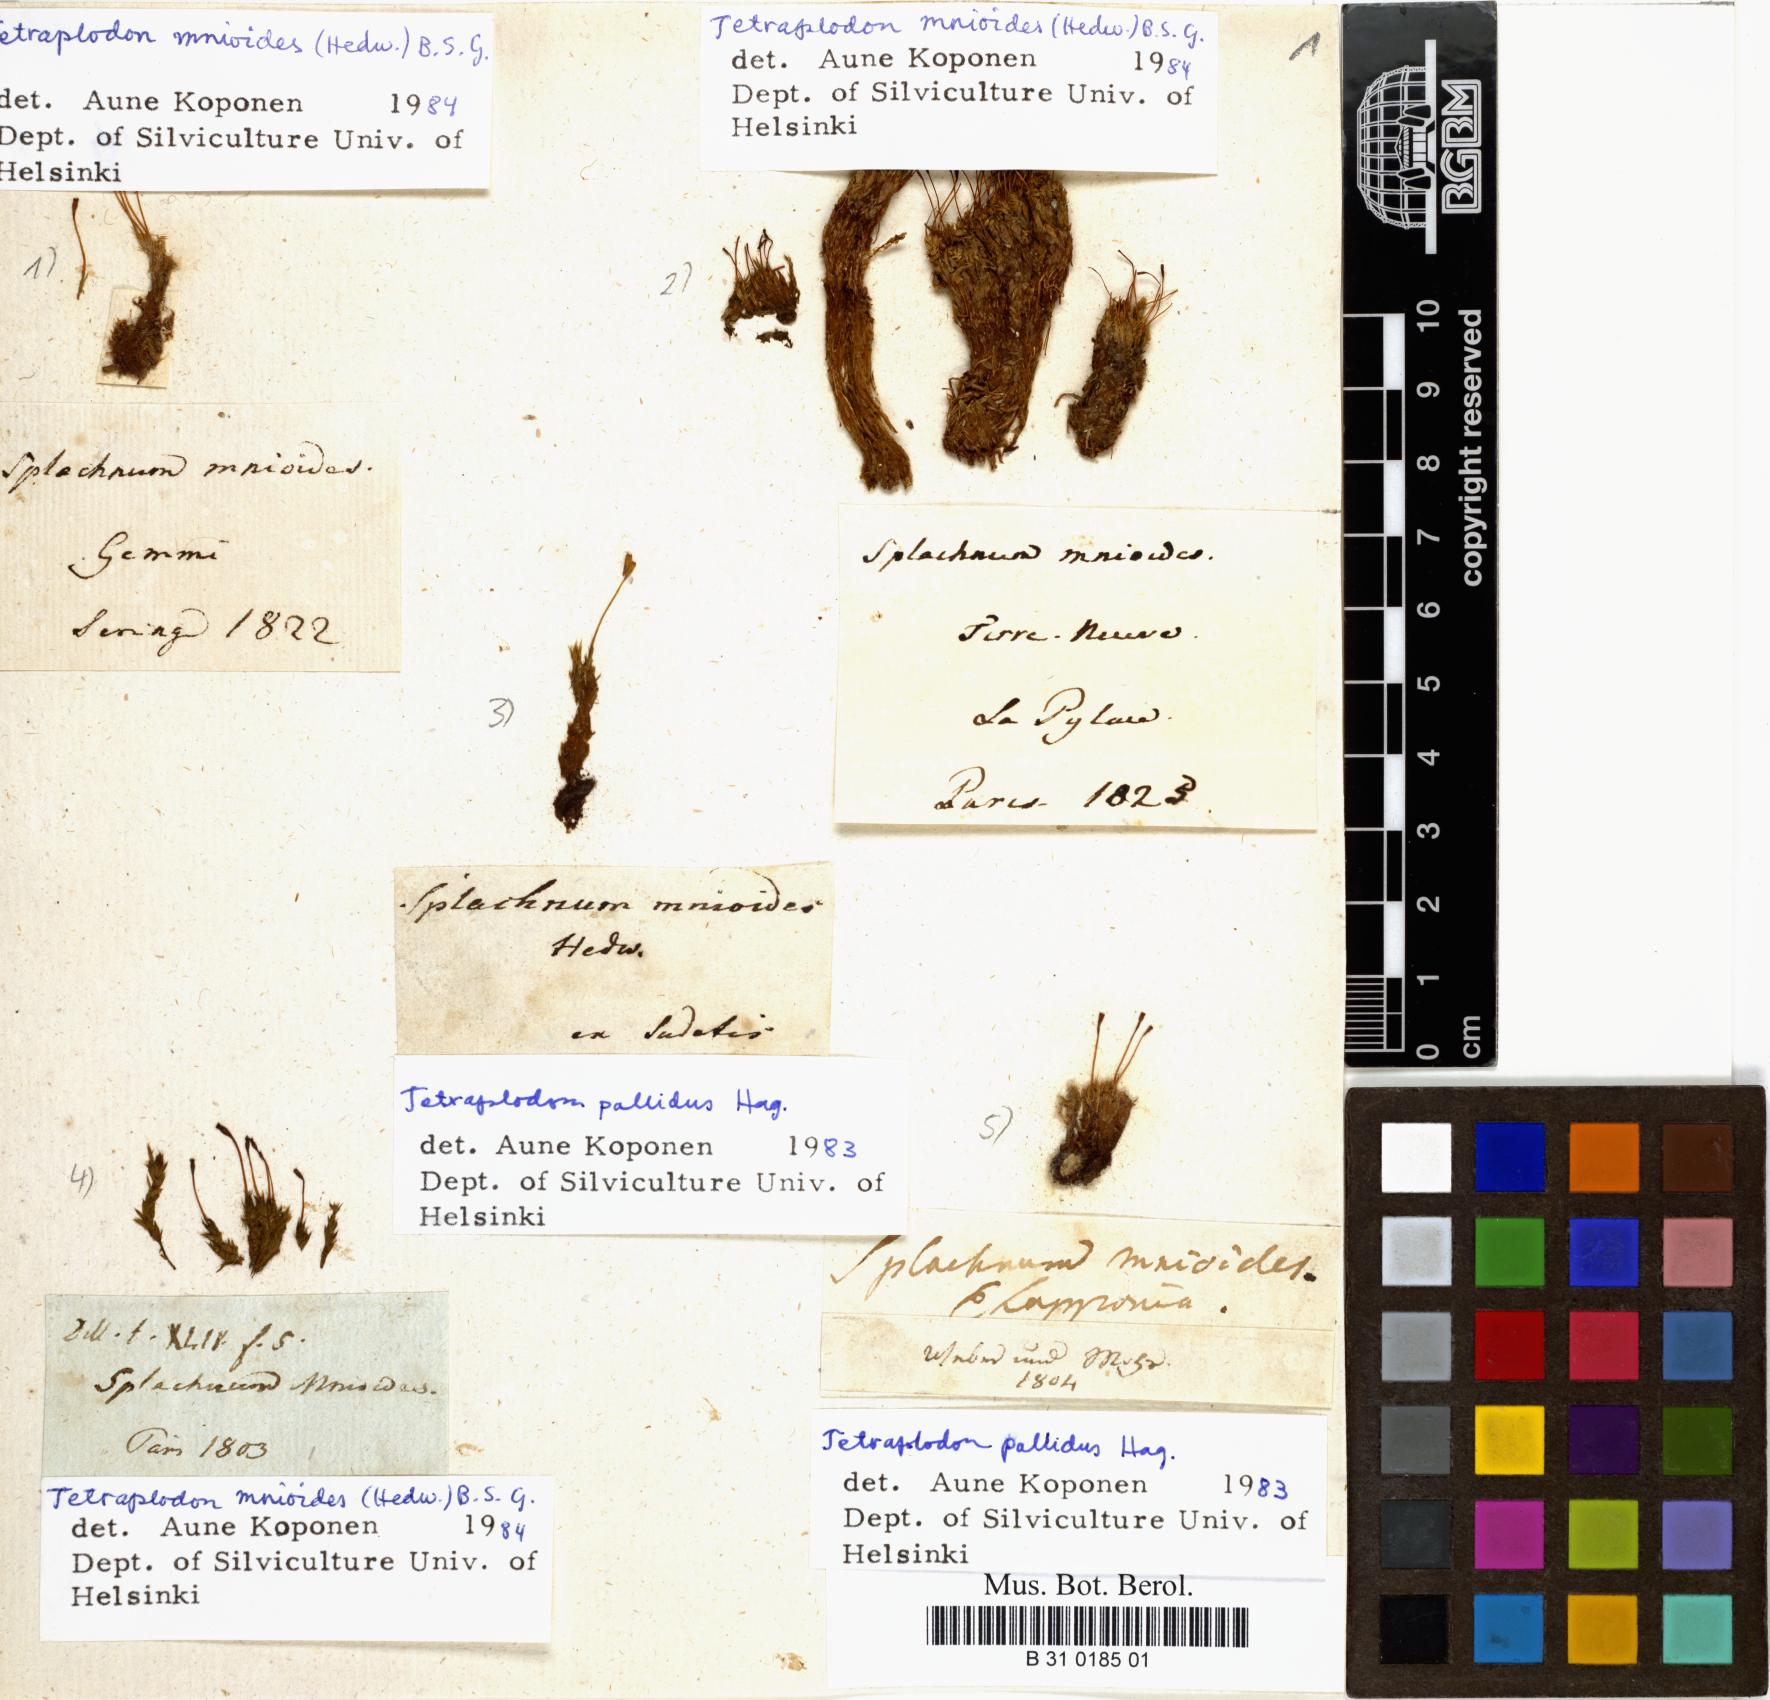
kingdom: Plantae
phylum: Bryophyta
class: Bryopsida
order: Splachnales
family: Splachnaceae
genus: Tetraplodon
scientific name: Tetraplodon mnioides
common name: Entire-leaved nitrogen moss
